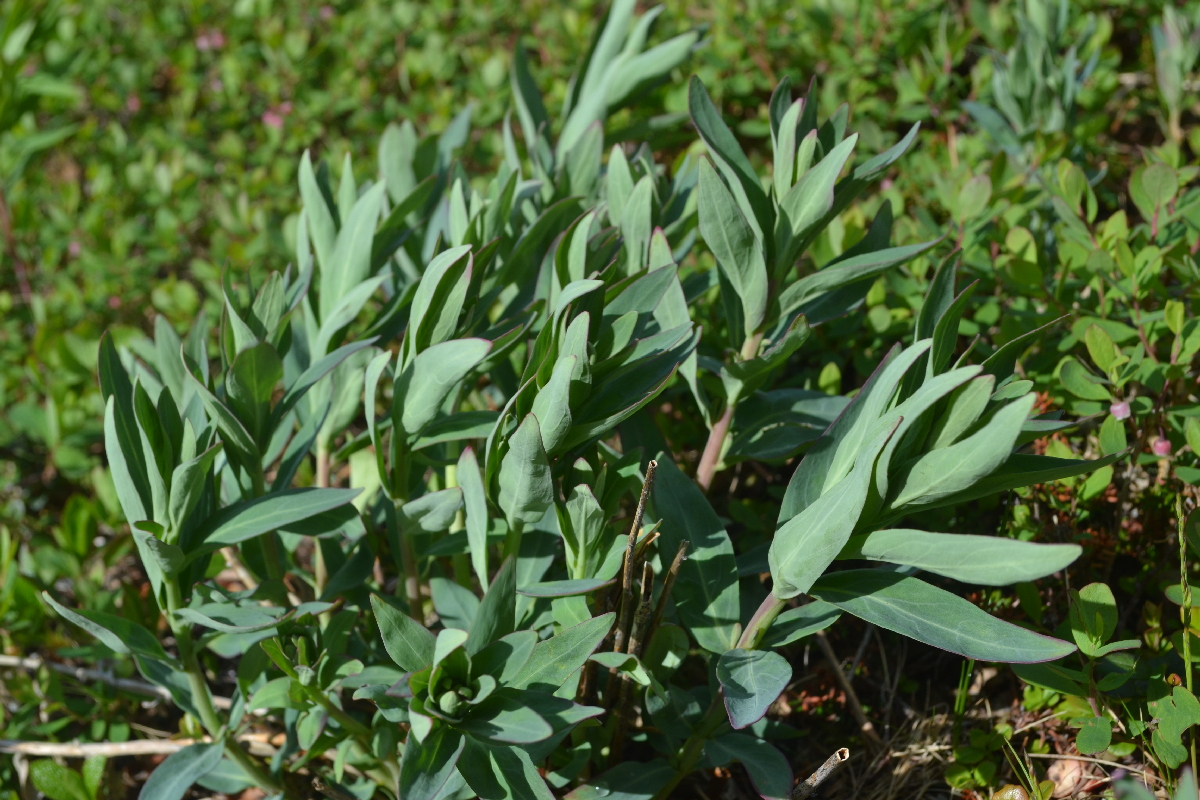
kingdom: Plantae
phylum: Tracheophyta
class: Magnoliopsida
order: Myrtales
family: Onagraceae
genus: Chamaenerion
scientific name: Chamaenerion latifolium
